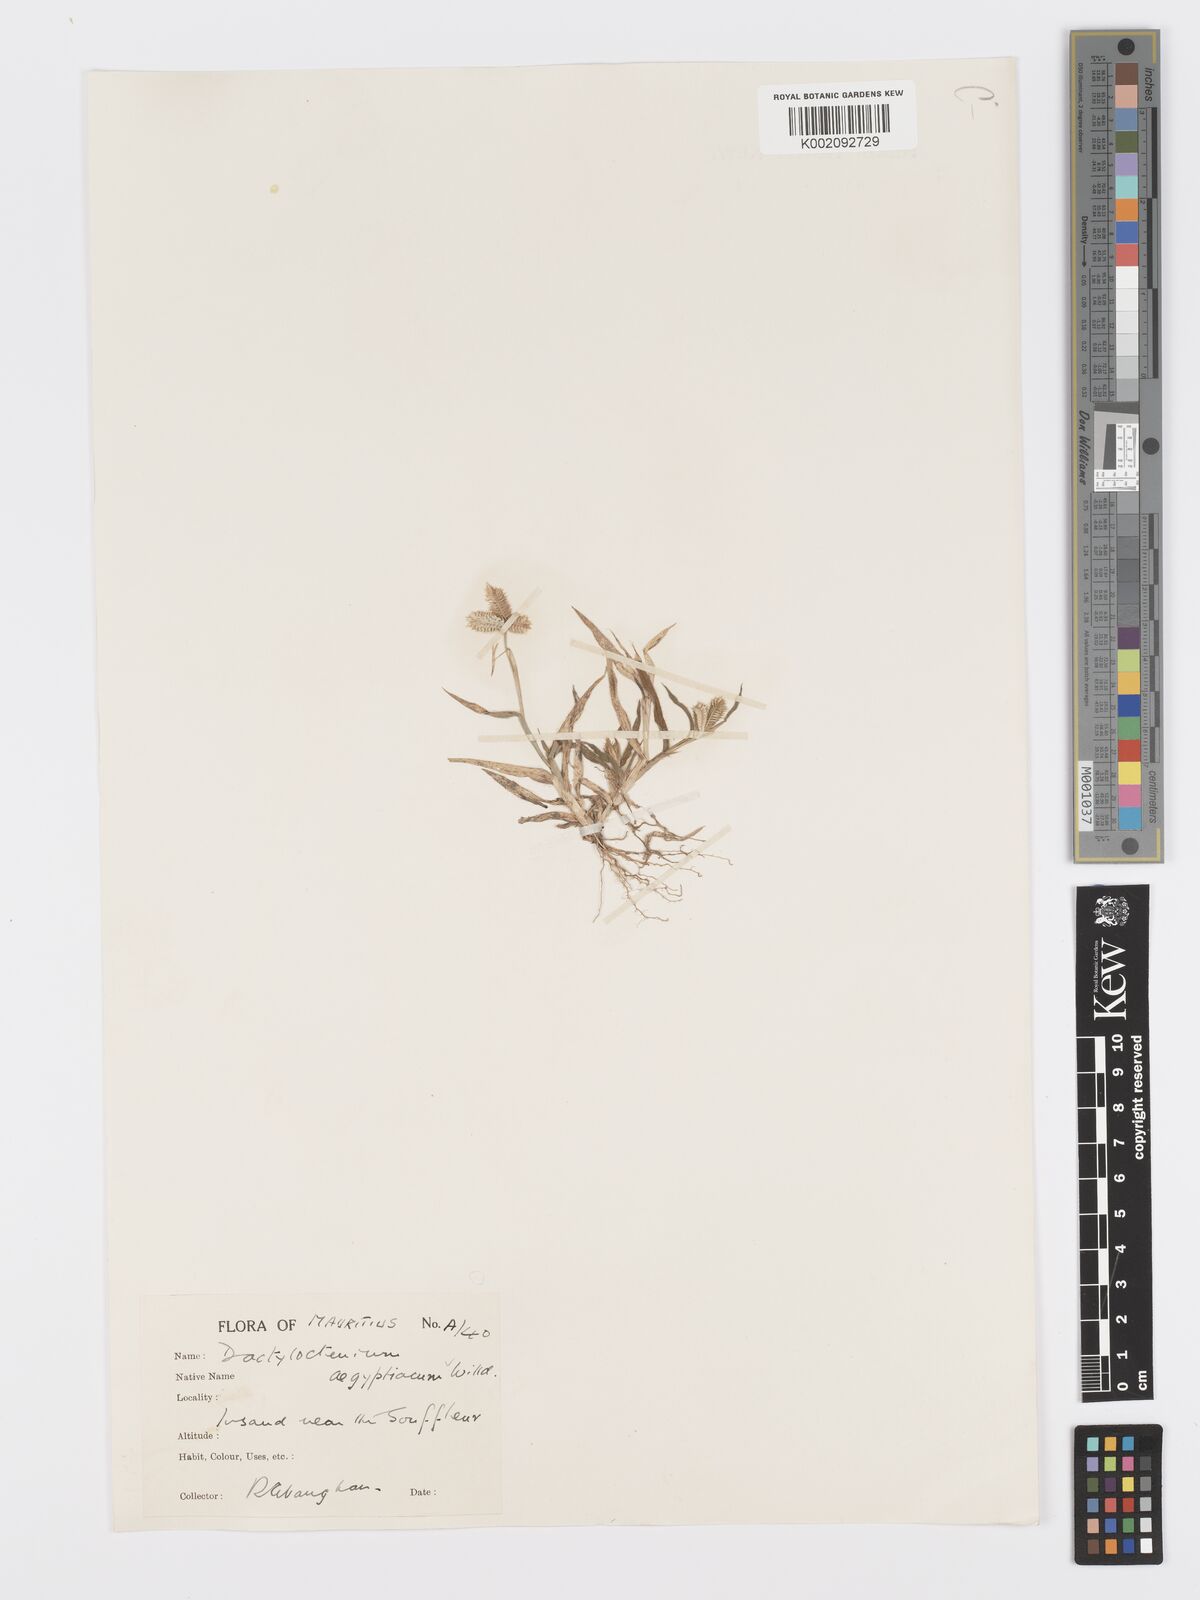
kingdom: Plantae
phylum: Tracheophyta
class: Liliopsida
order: Poales
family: Poaceae
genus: Dactyloctenium
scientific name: Dactyloctenium aegyptium
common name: Egyptian grass
